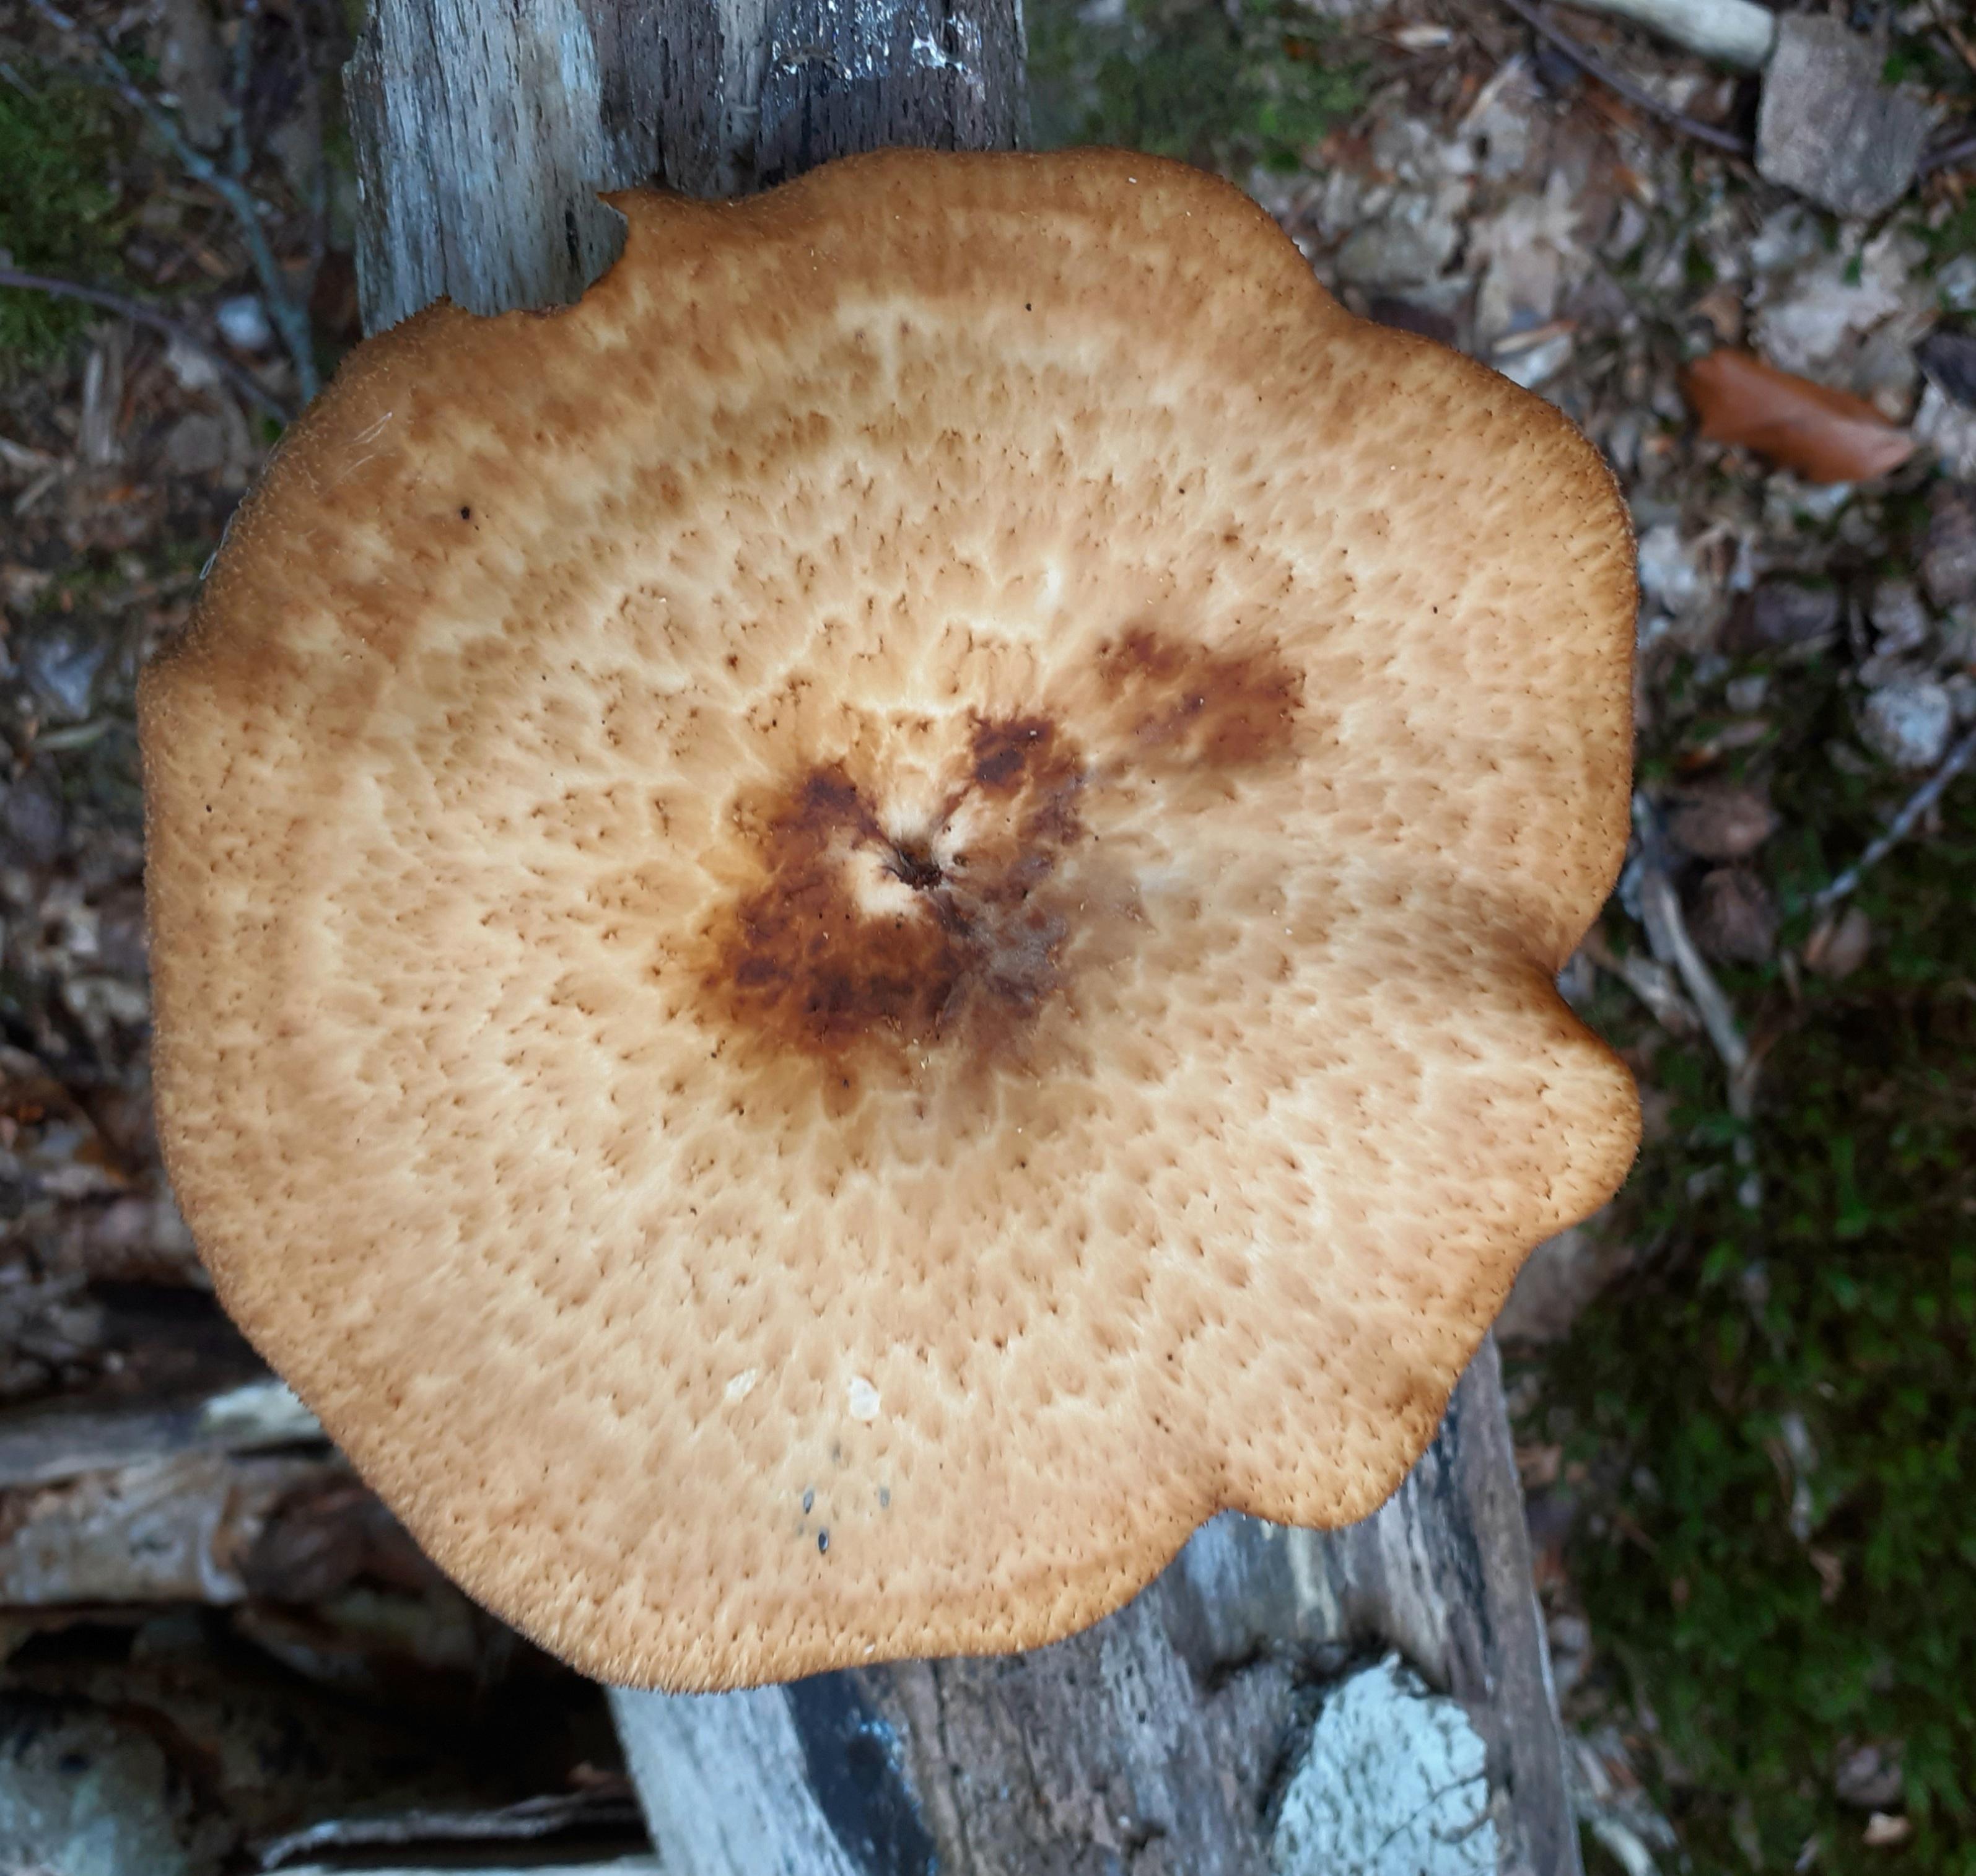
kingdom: Fungi
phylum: Basidiomycota
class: Agaricomycetes
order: Polyporales
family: Polyporaceae
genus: Polyporus
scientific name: Polyporus tuberaster
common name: knoldet stilkporesvamp
